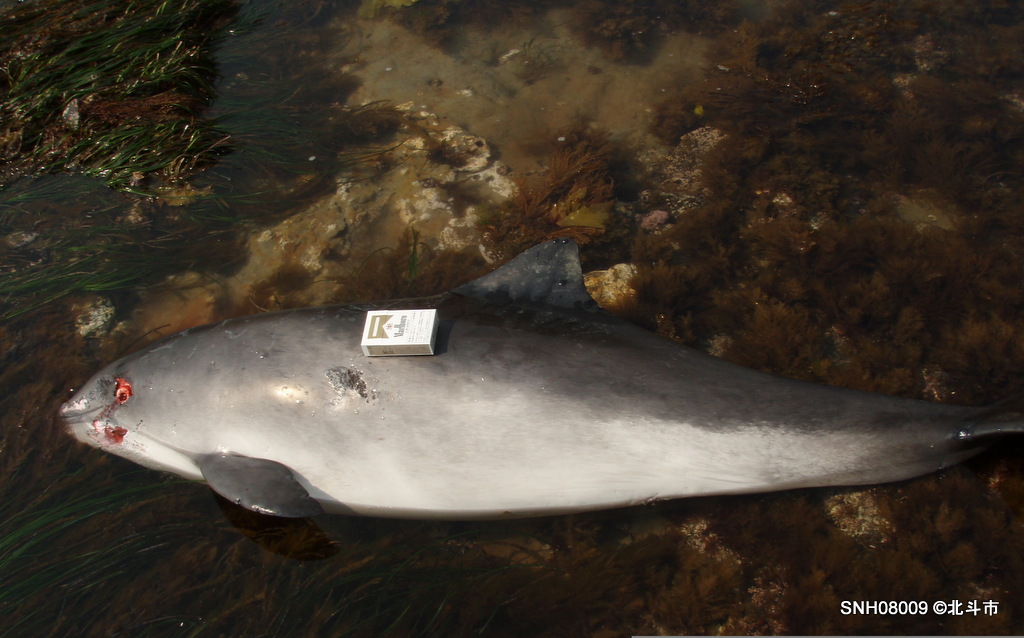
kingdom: Animalia
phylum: Chordata
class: Mammalia
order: Cetacea
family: Phocoenidae
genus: Phocoena
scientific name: Phocoena phocoena
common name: Harbour porpoise
